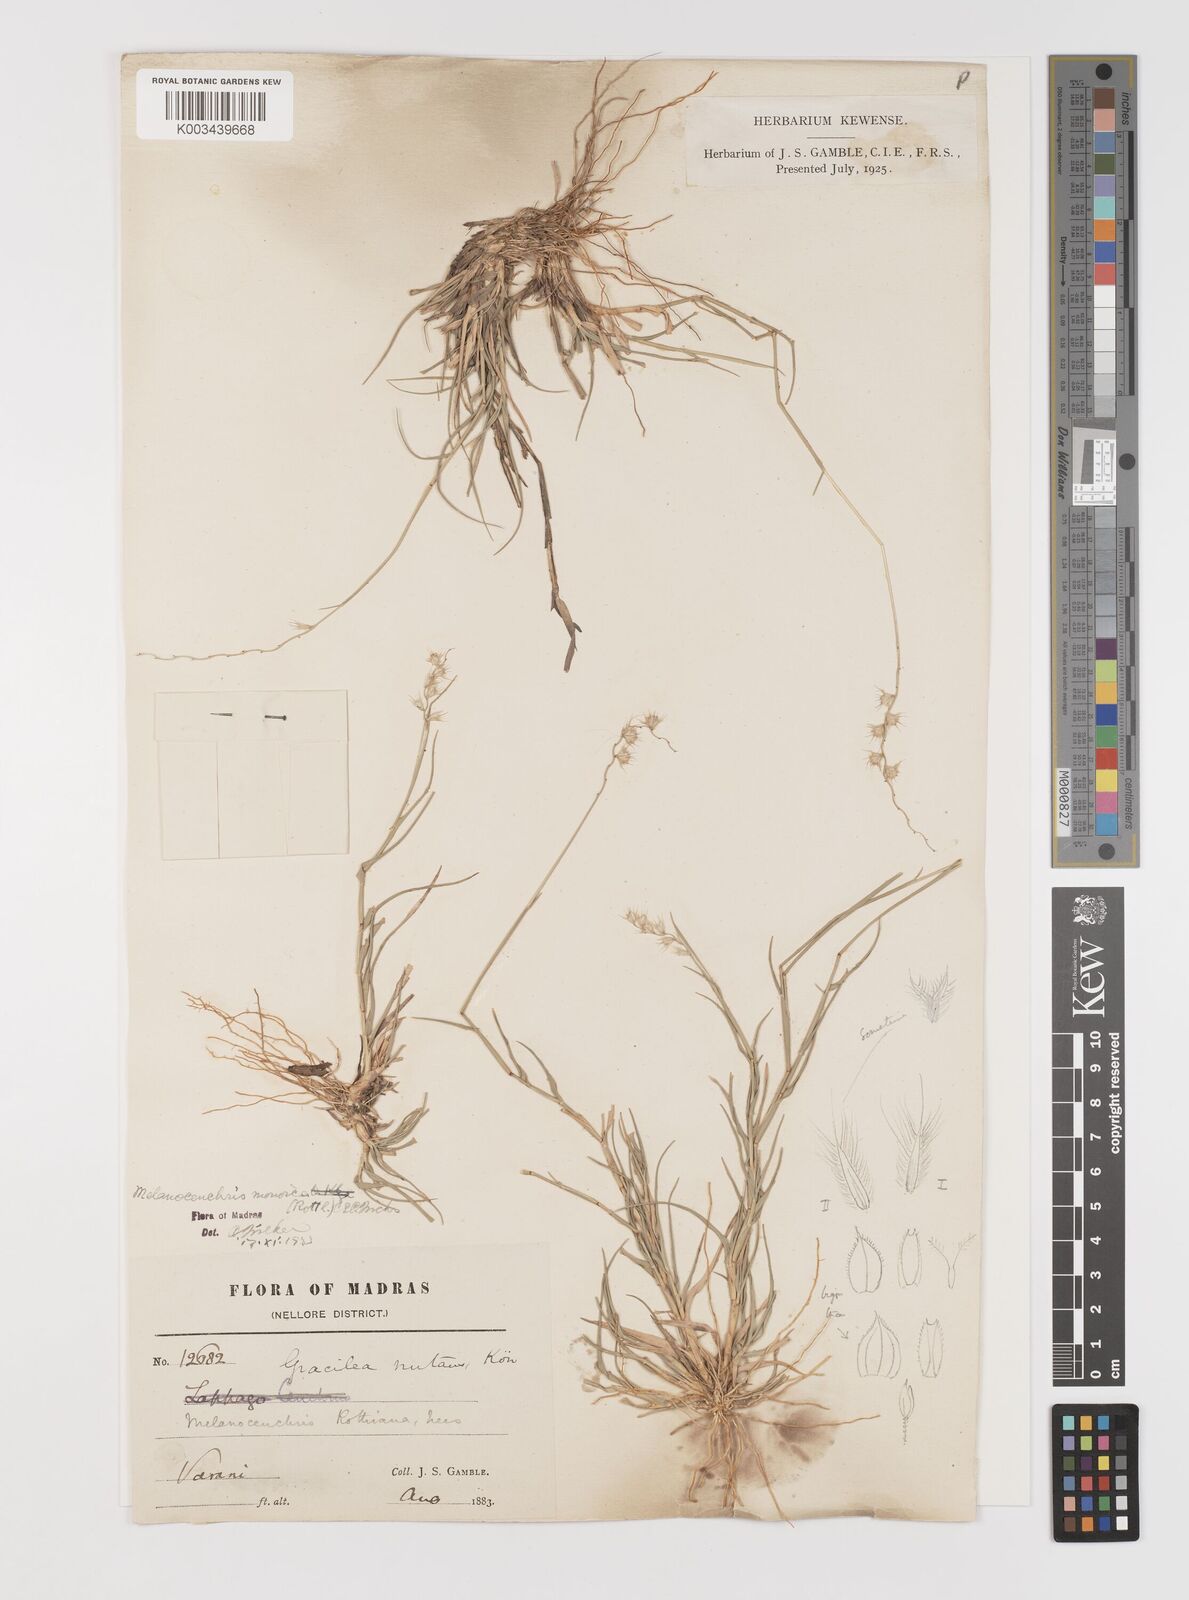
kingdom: Plantae
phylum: Tracheophyta
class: Liliopsida
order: Poales
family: Poaceae
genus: Melanocenchris
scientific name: Melanocenchris rothiana
